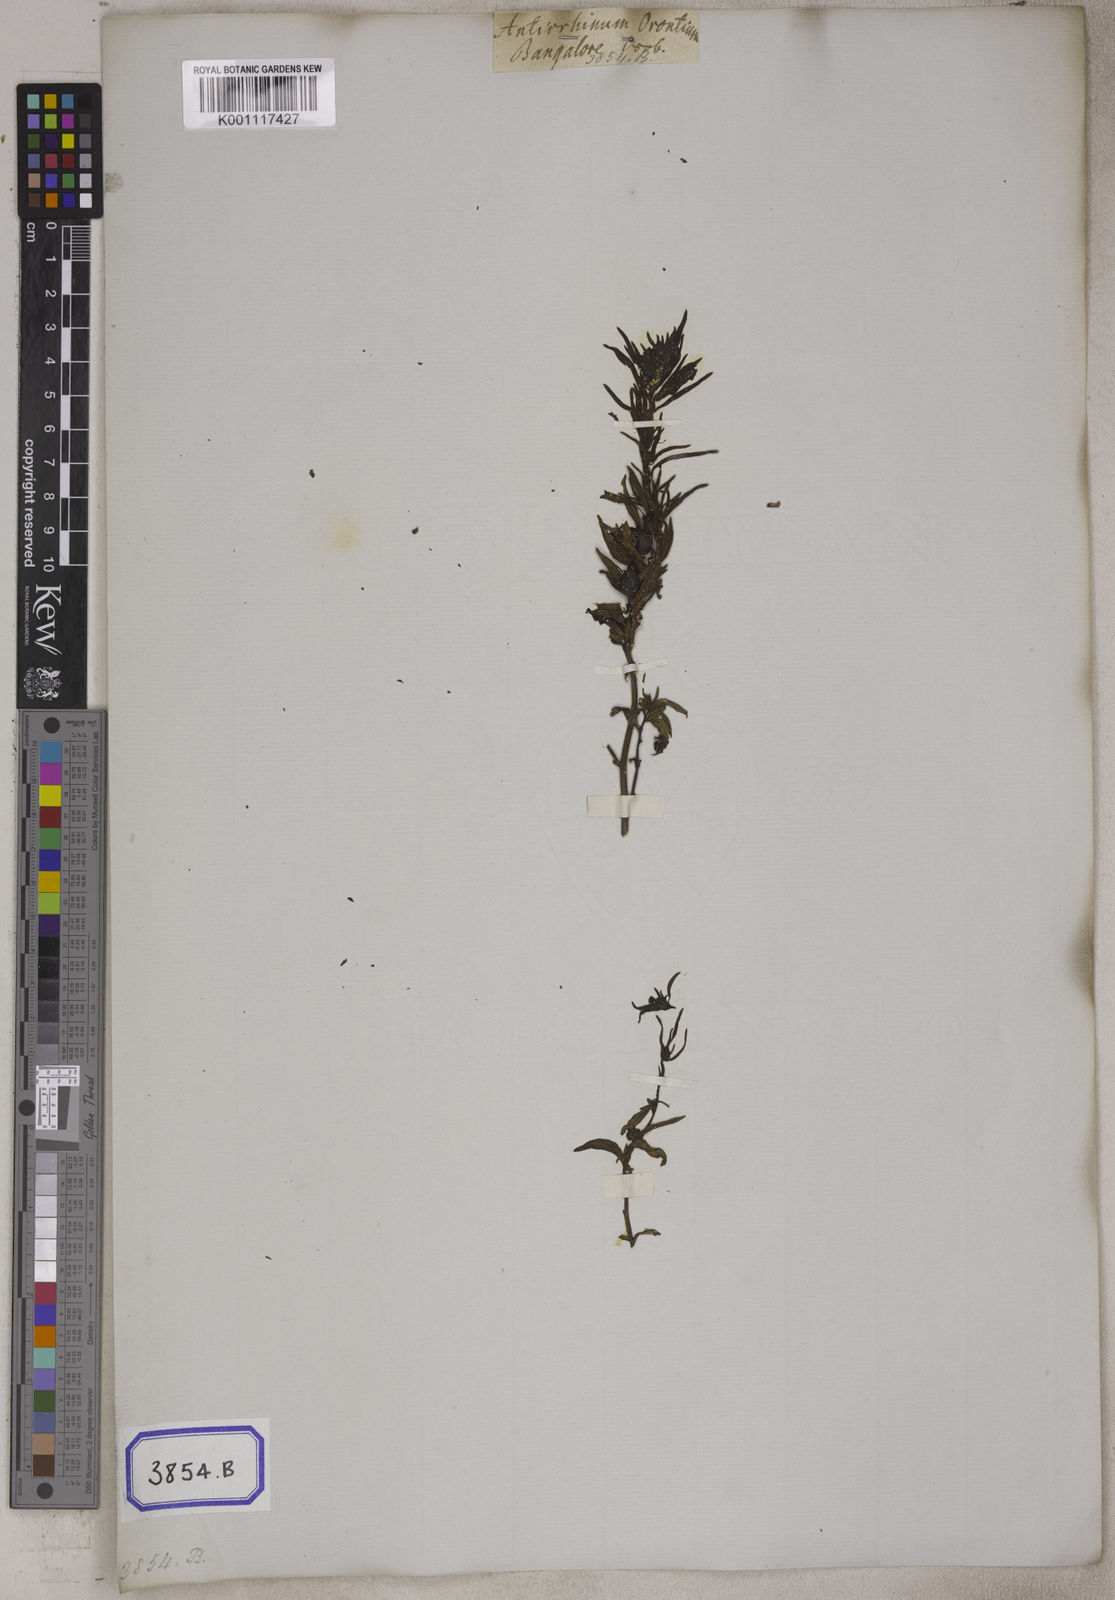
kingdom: Plantae
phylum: Tracheophyta
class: Magnoliopsida
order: Lamiales
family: Plantaginaceae
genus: Misopates
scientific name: Misopates orontium
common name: Weasel's-snout
